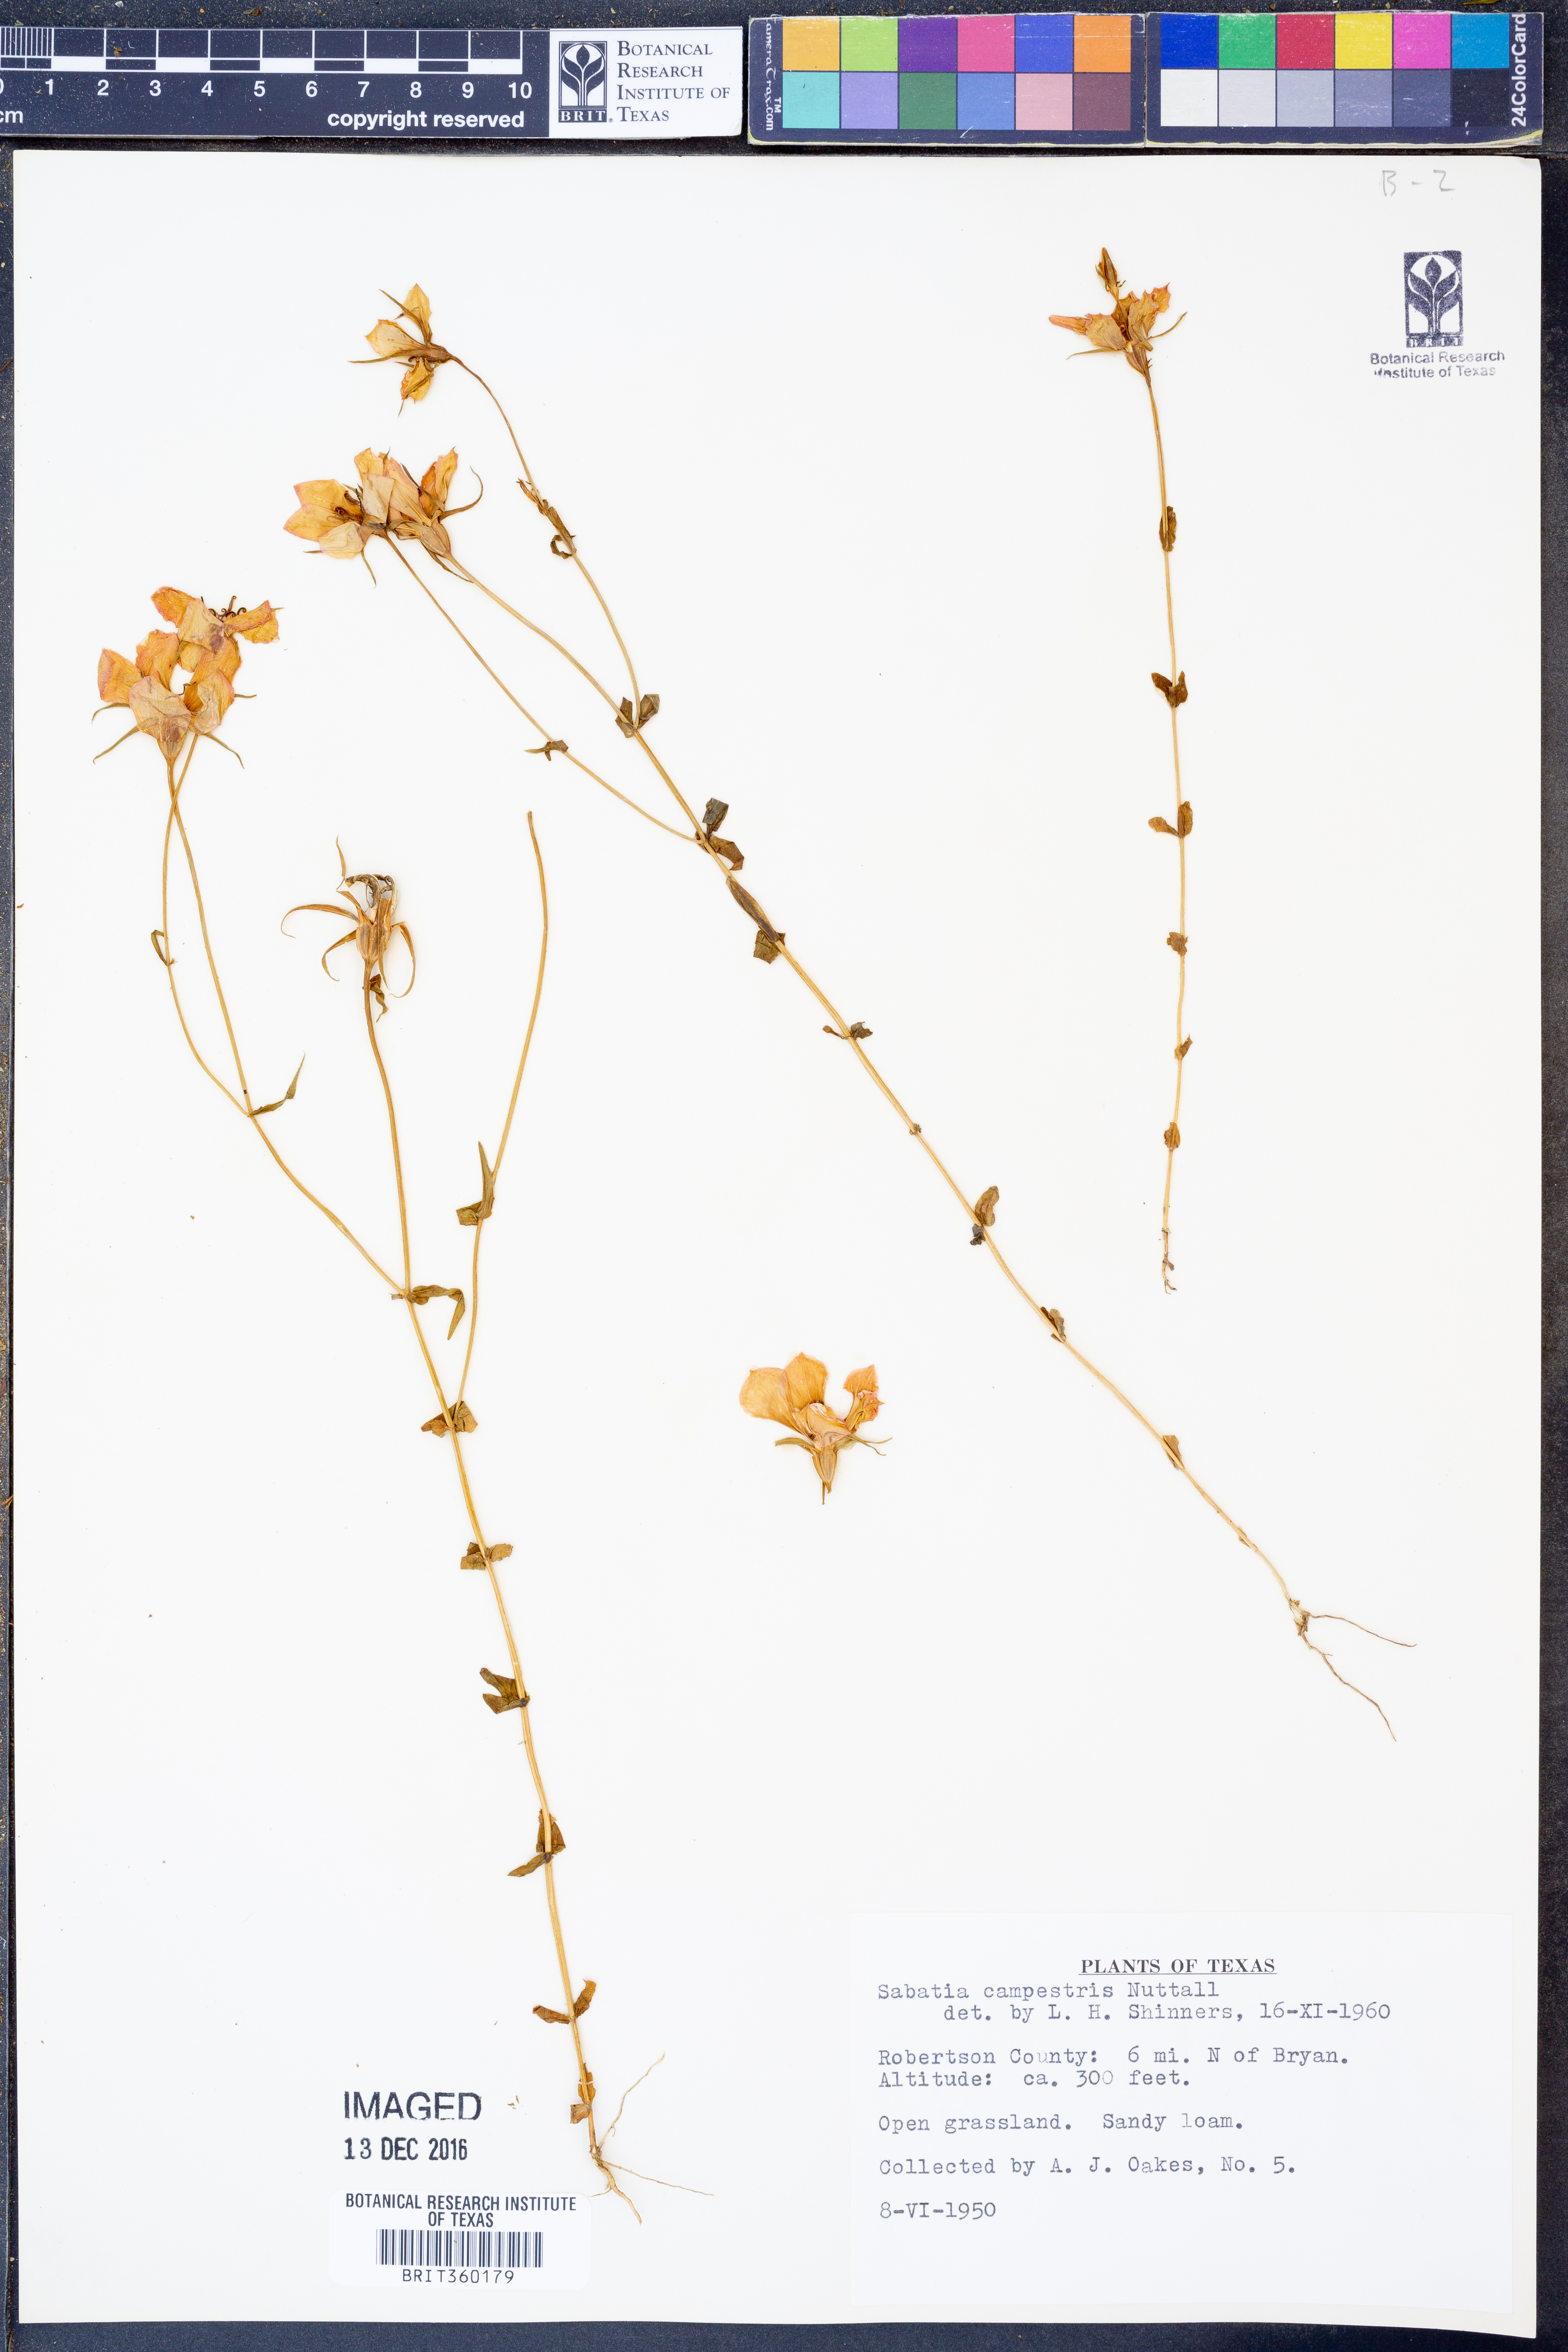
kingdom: Plantae
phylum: Tracheophyta
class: Magnoliopsida
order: Gentianales
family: Gentianaceae
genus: Sabatia
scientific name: Sabatia campestris
